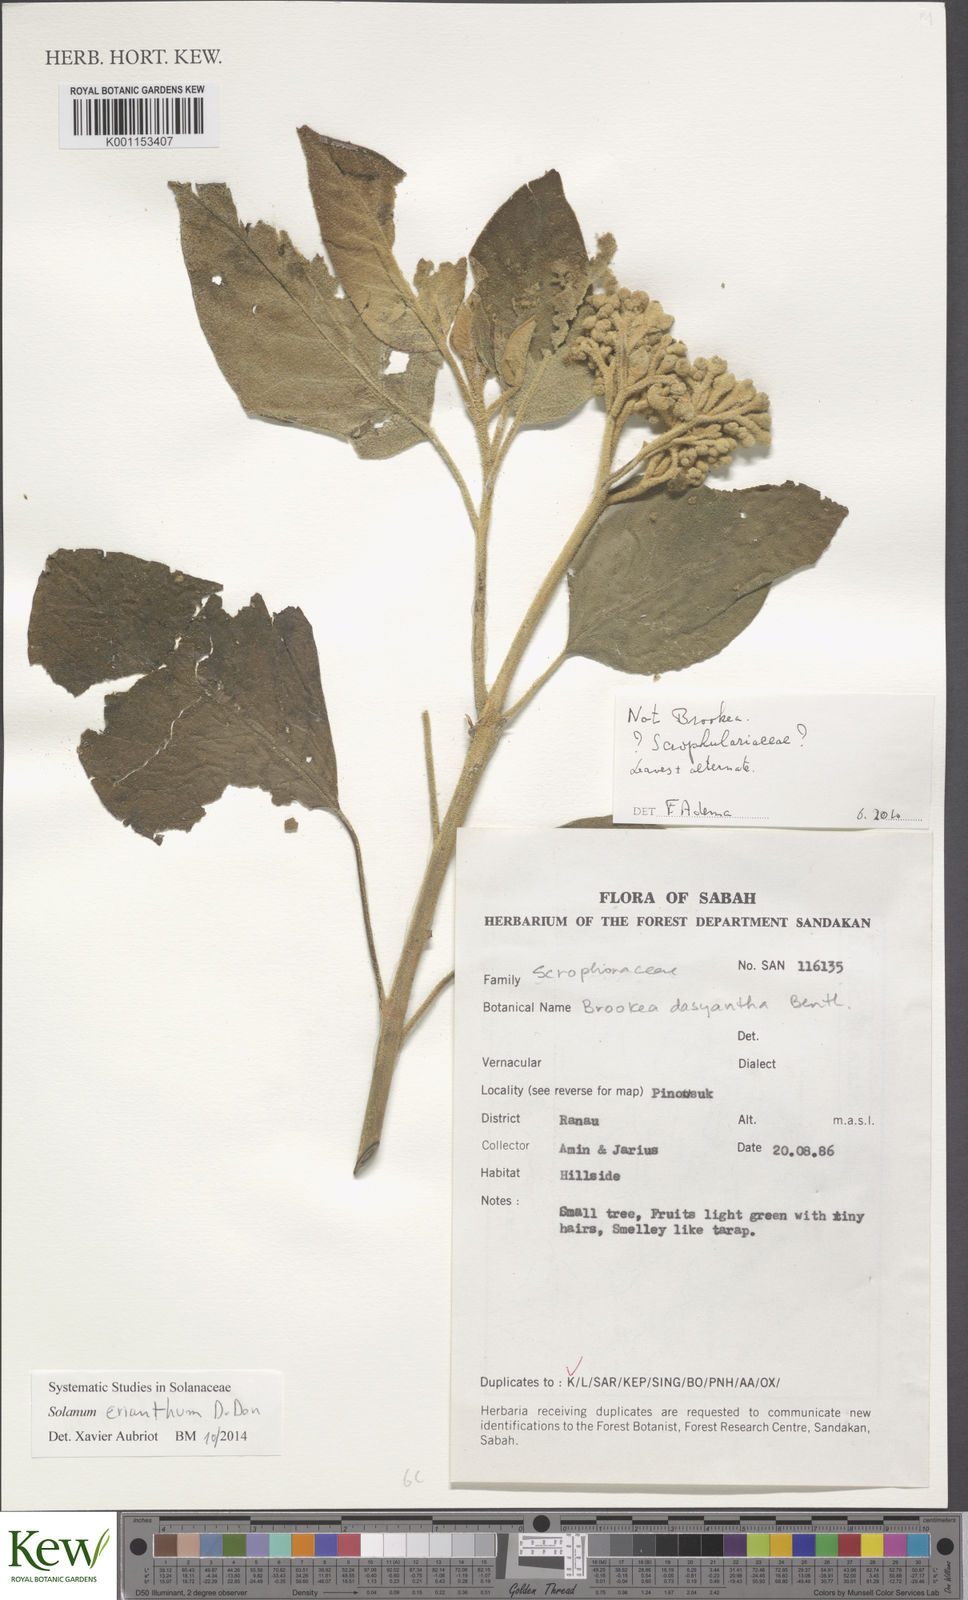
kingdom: Plantae
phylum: Tracheophyta
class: Magnoliopsida
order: Solanales
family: Solanaceae
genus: Solanum
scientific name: Solanum erianthum
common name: Tobacco-tree
